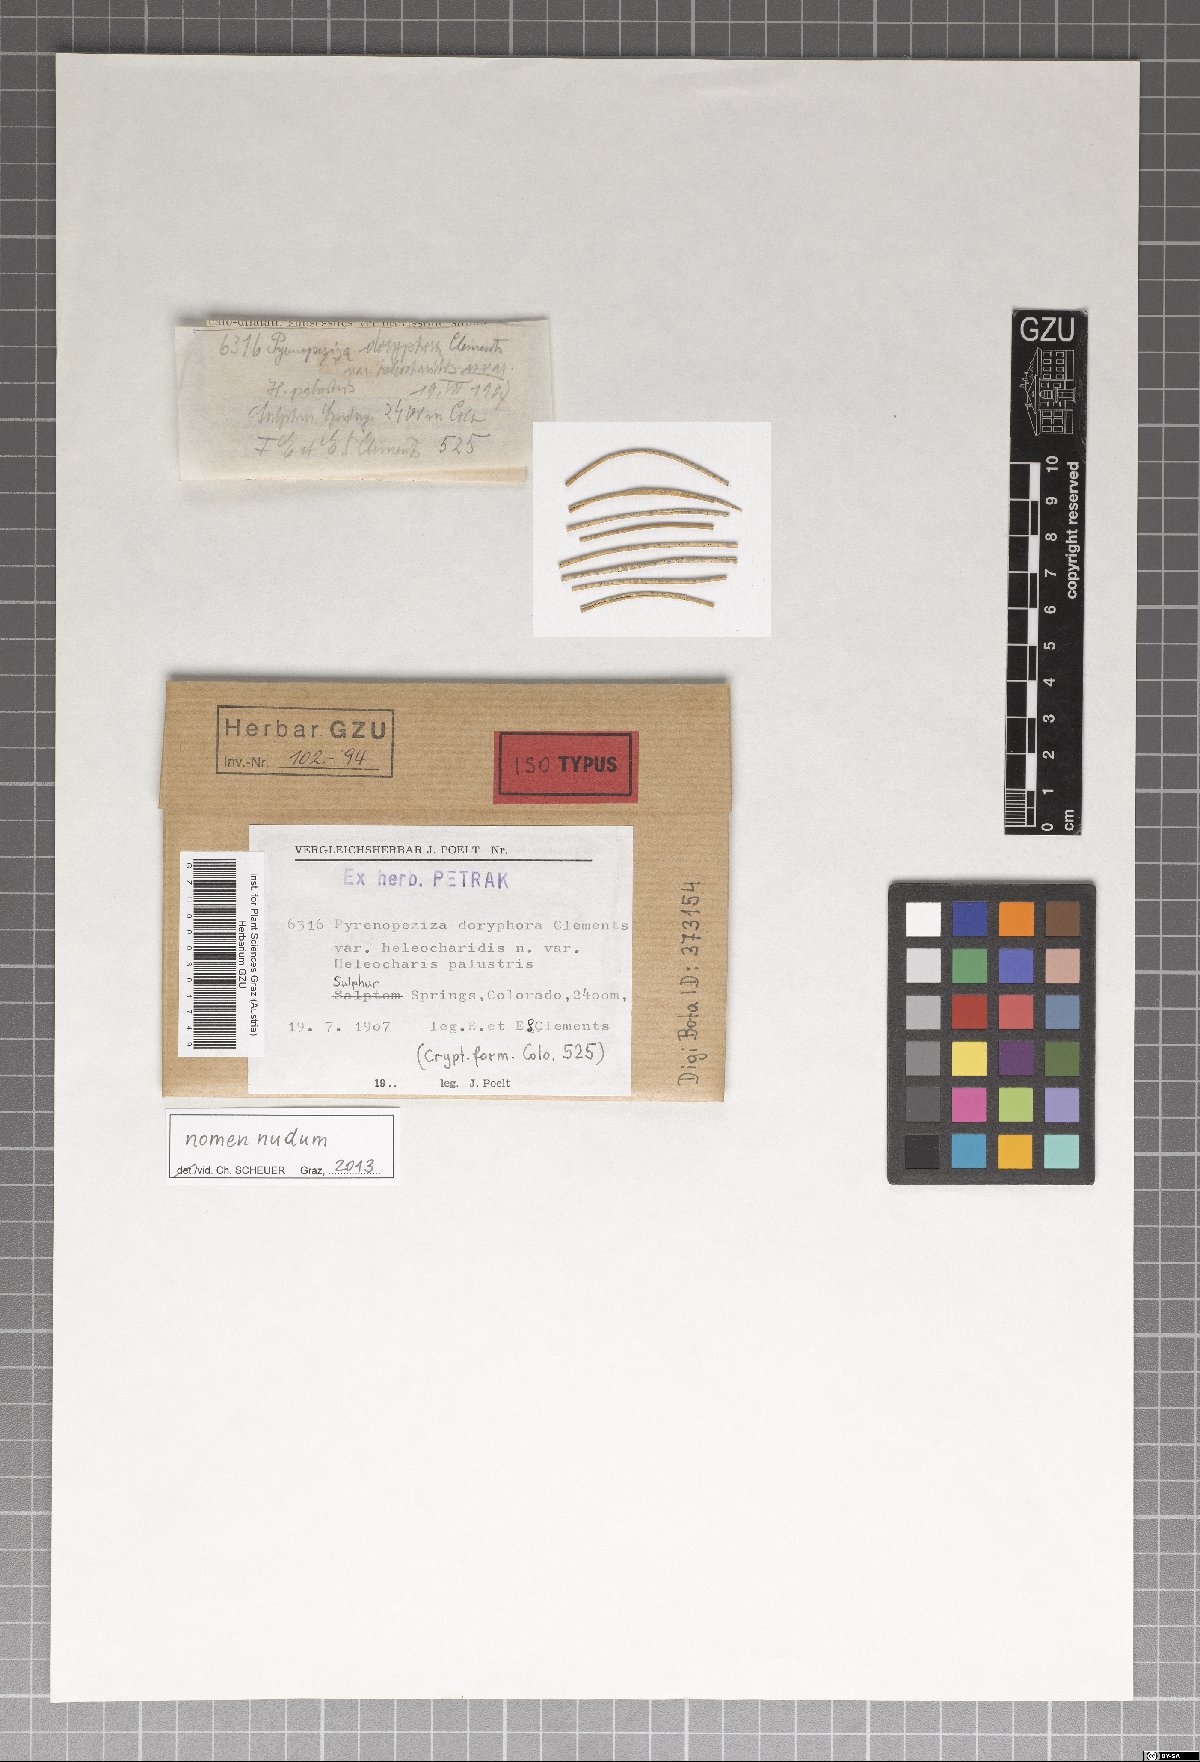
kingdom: Fungi
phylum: Ascomycota
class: Leotiomycetes
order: Helotiales
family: Dermateaceae
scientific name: Dermateaceae
